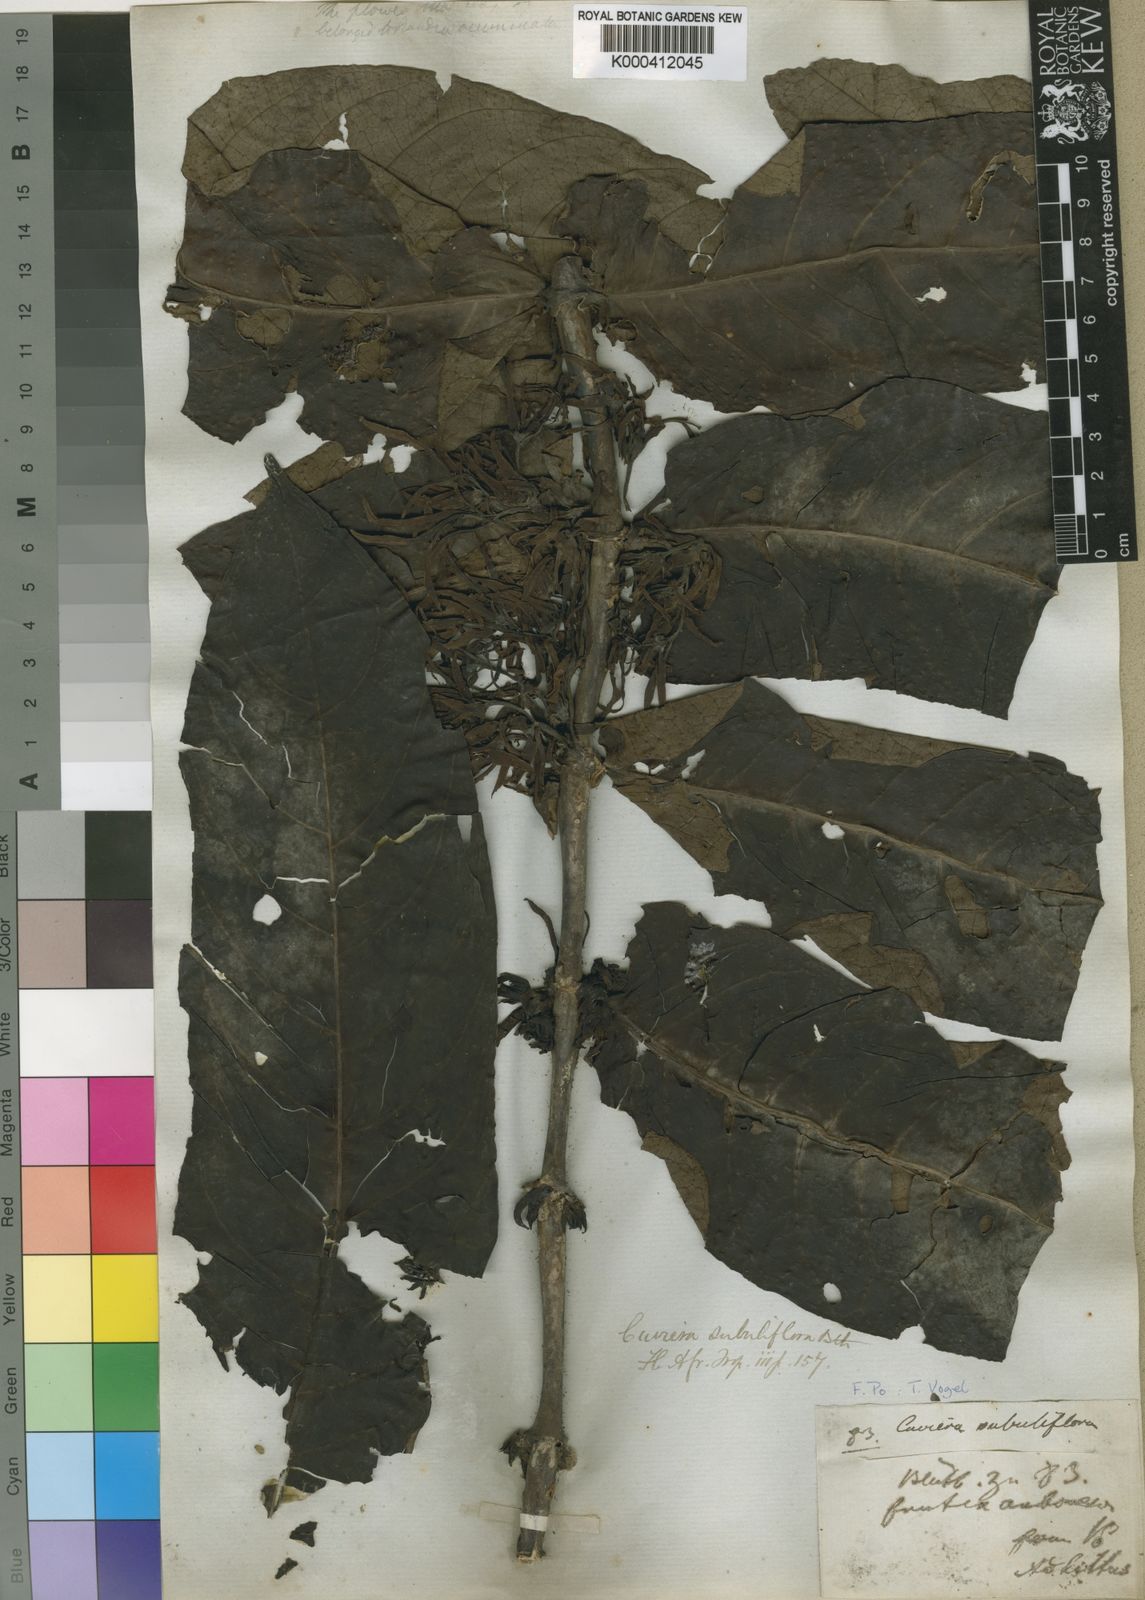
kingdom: Plantae
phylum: Tracheophyta
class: Magnoliopsida
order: Gentianales
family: Rubiaceae
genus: Cuviera
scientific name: Cuviera acutiflora
